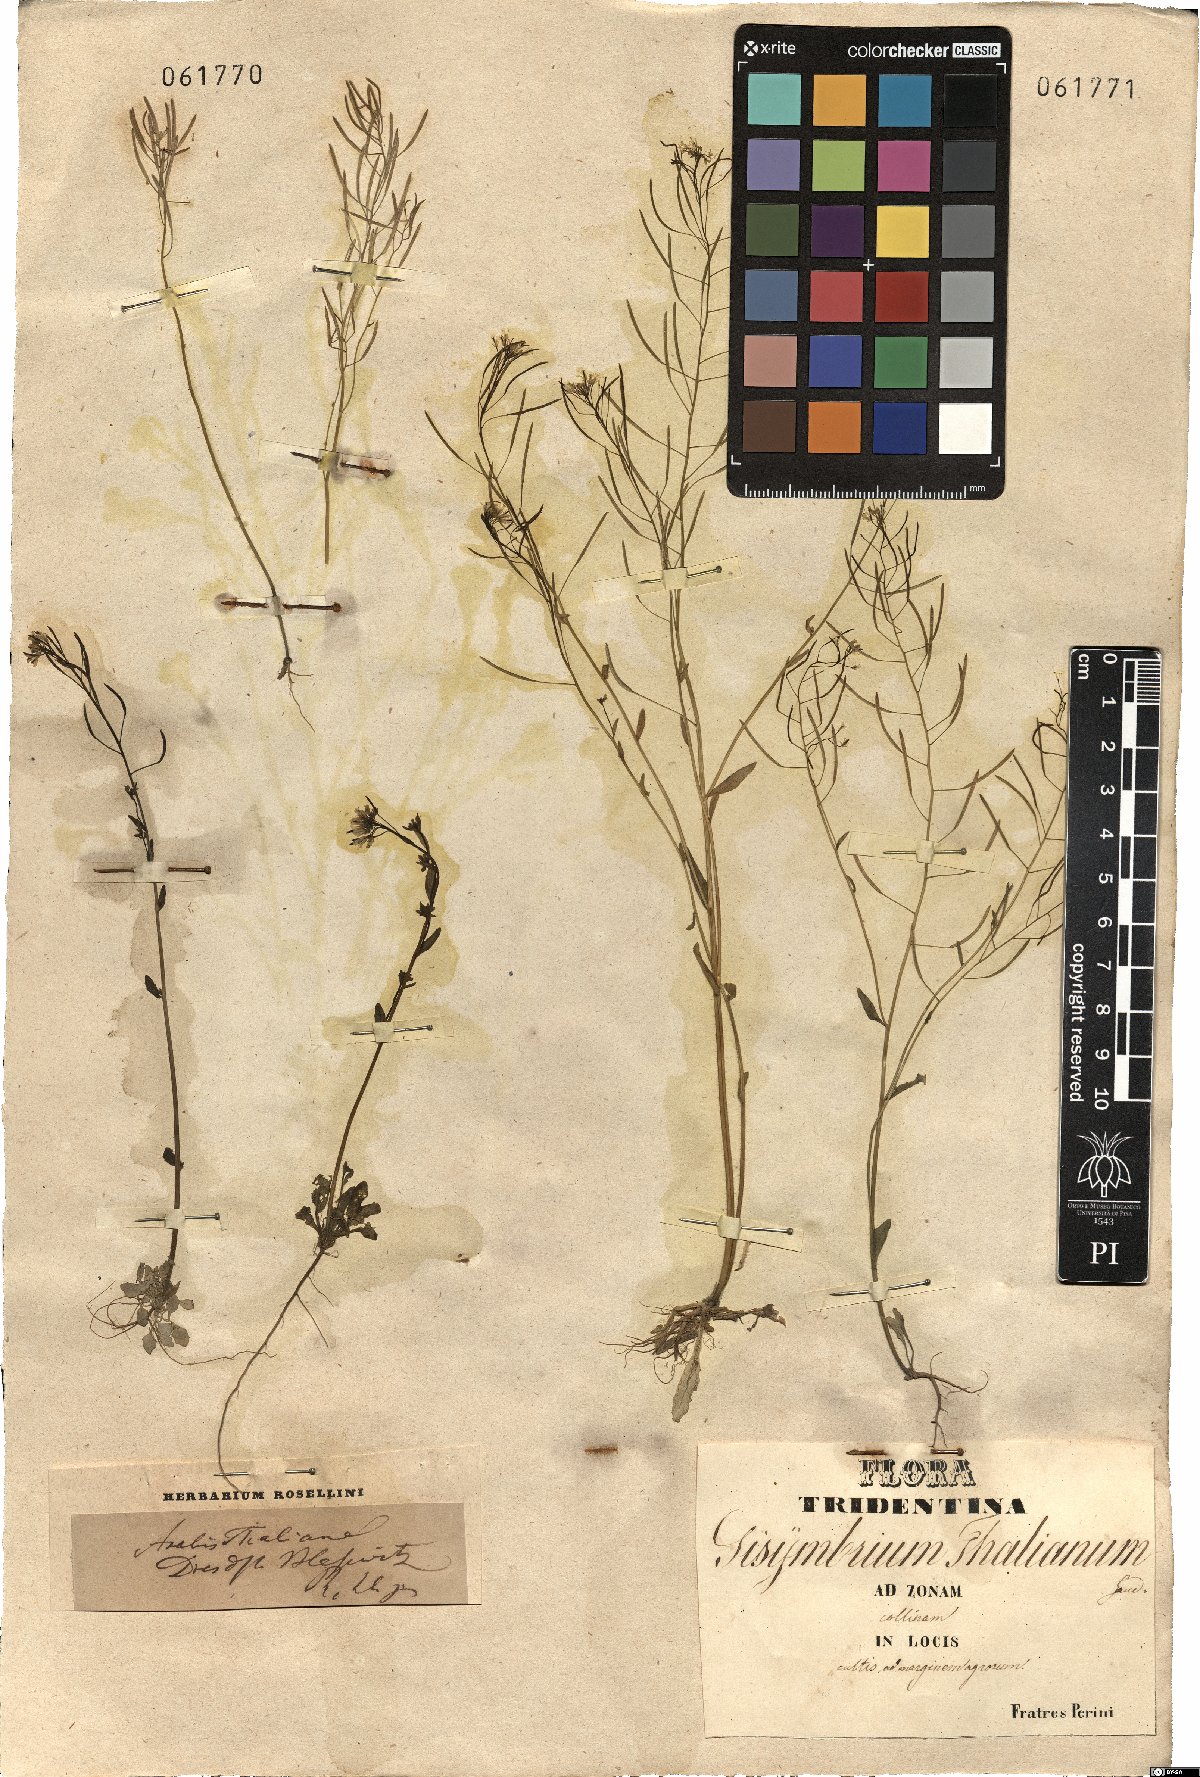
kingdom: Plantae
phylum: Tracheophyta
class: Magnoliopsida
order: Brassicales
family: Brassicaceae
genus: Arabidopsis
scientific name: Arabidopsis thaliana
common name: Thale cress
